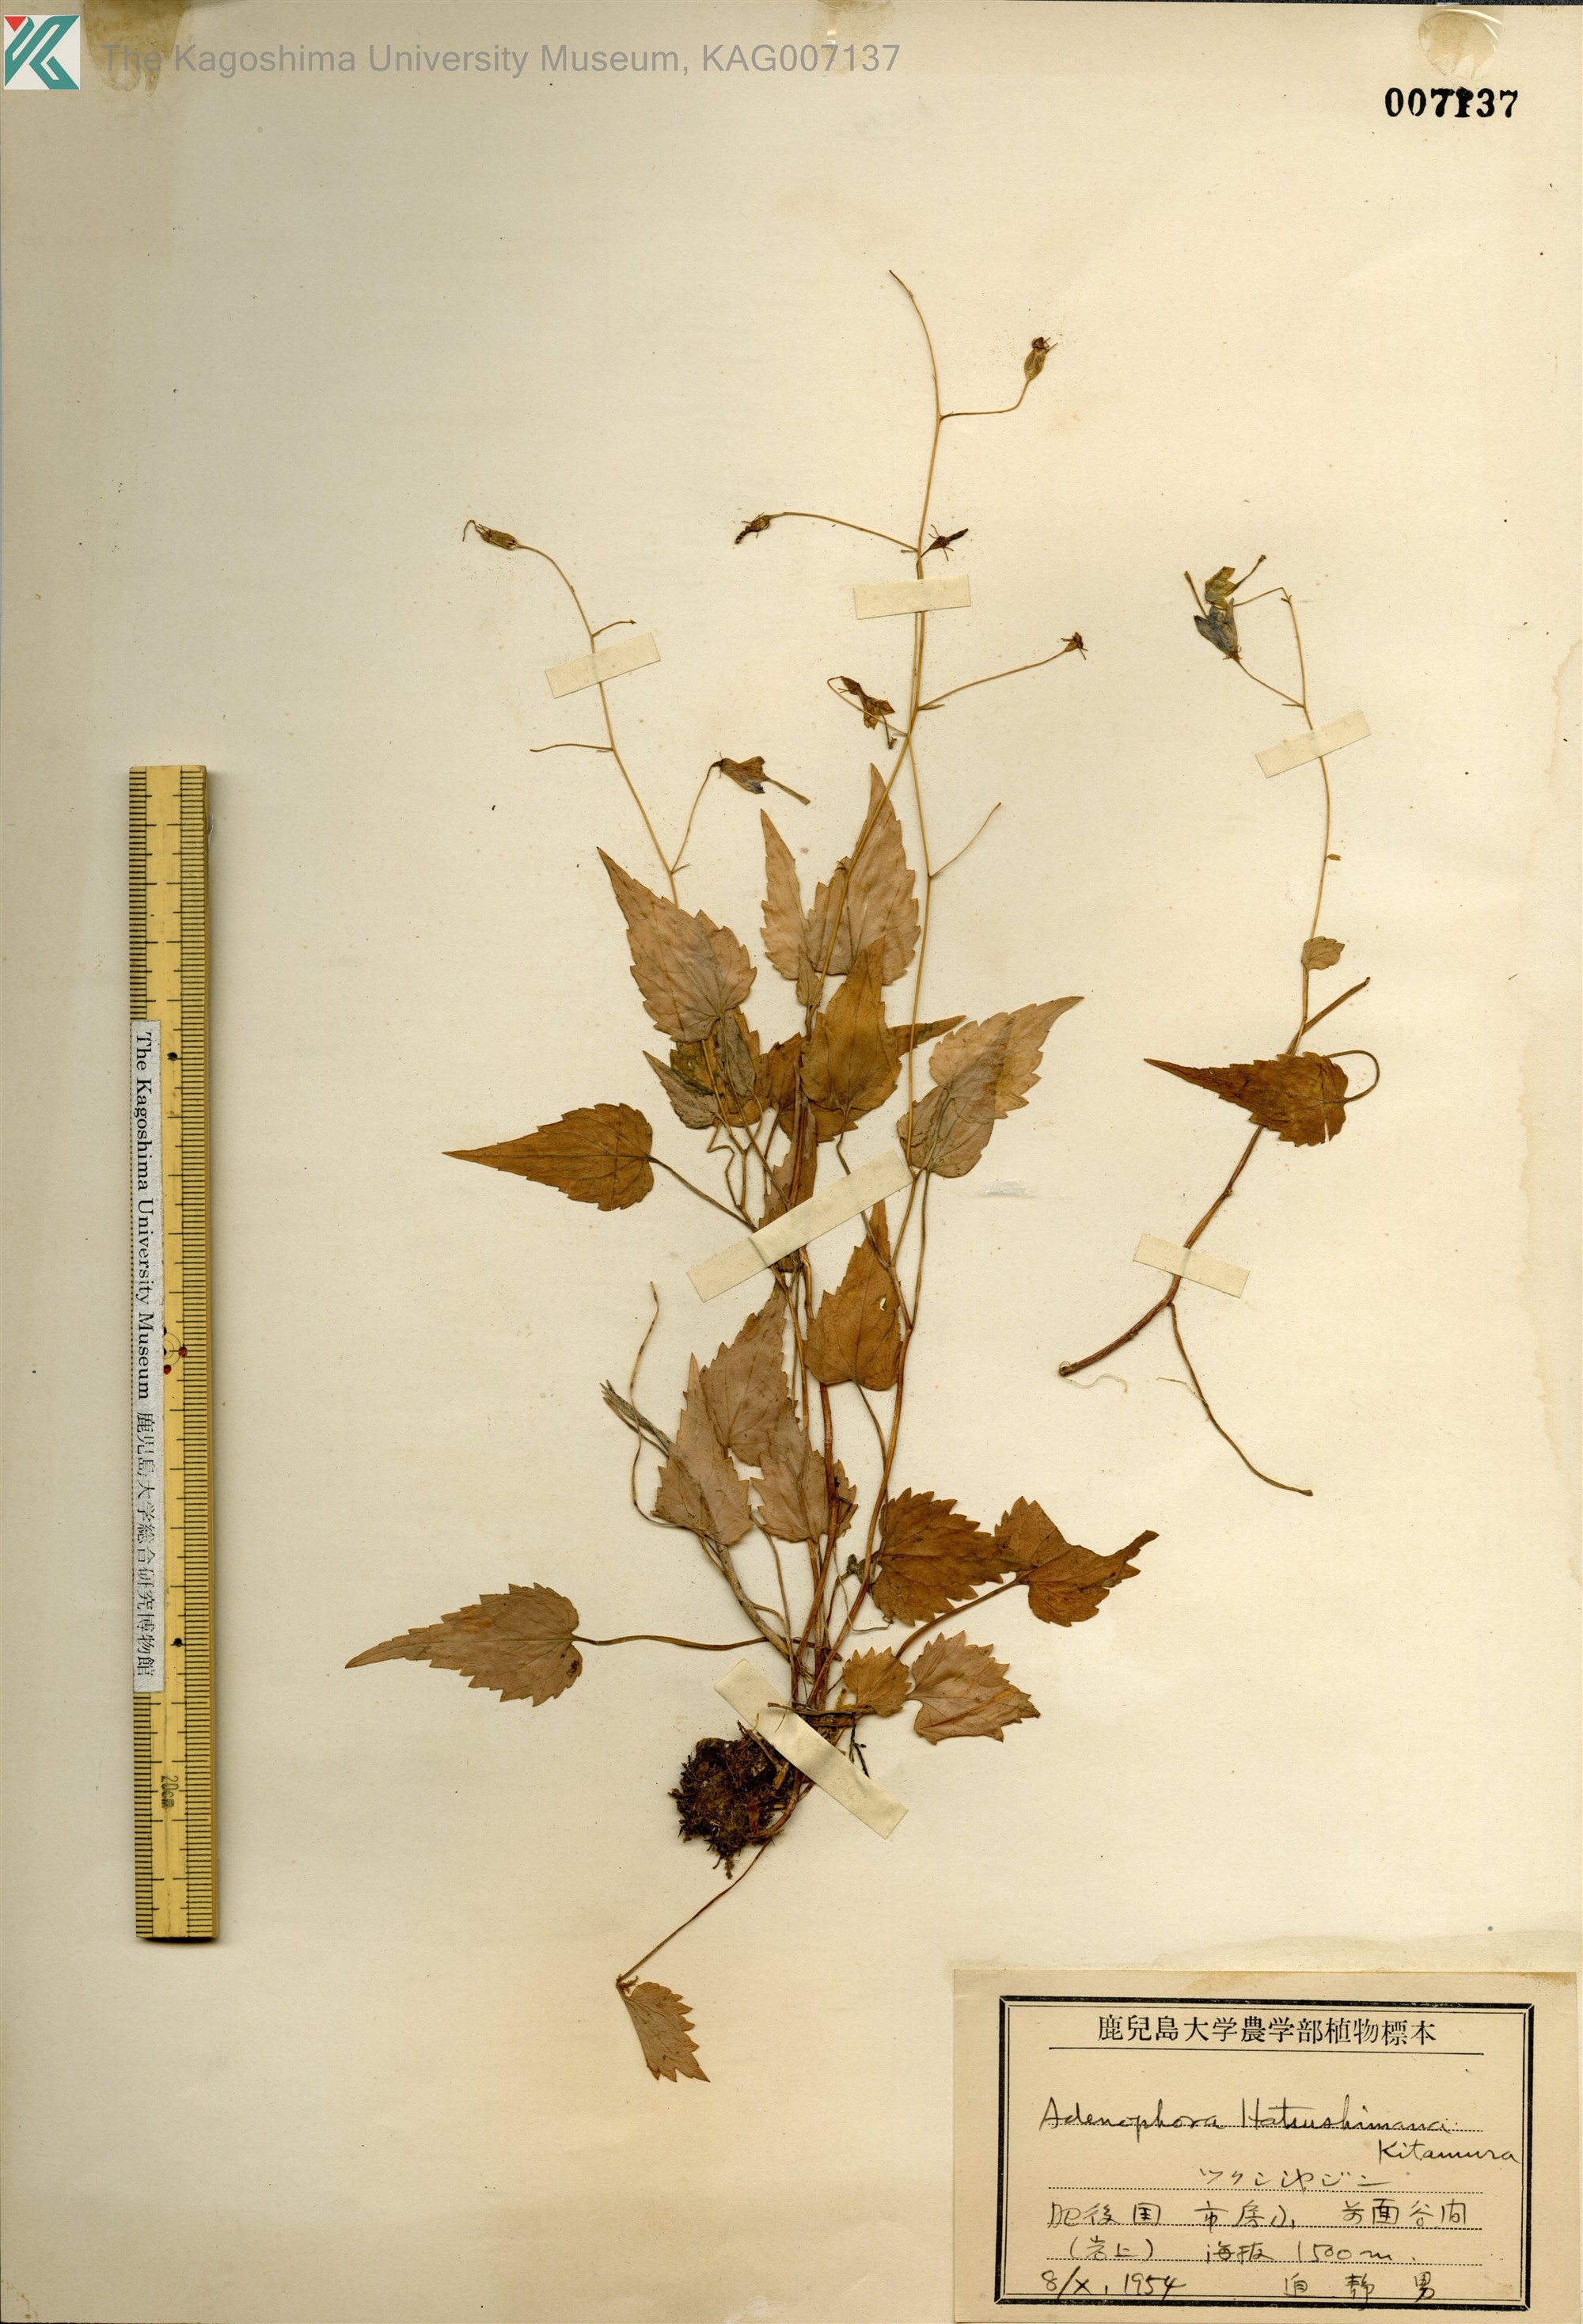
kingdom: Plantae
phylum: Tracheophyta
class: Magnoliopsida
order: Asterales
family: Campanulaceae
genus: Adenophora
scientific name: Adenophora hatsushimae
